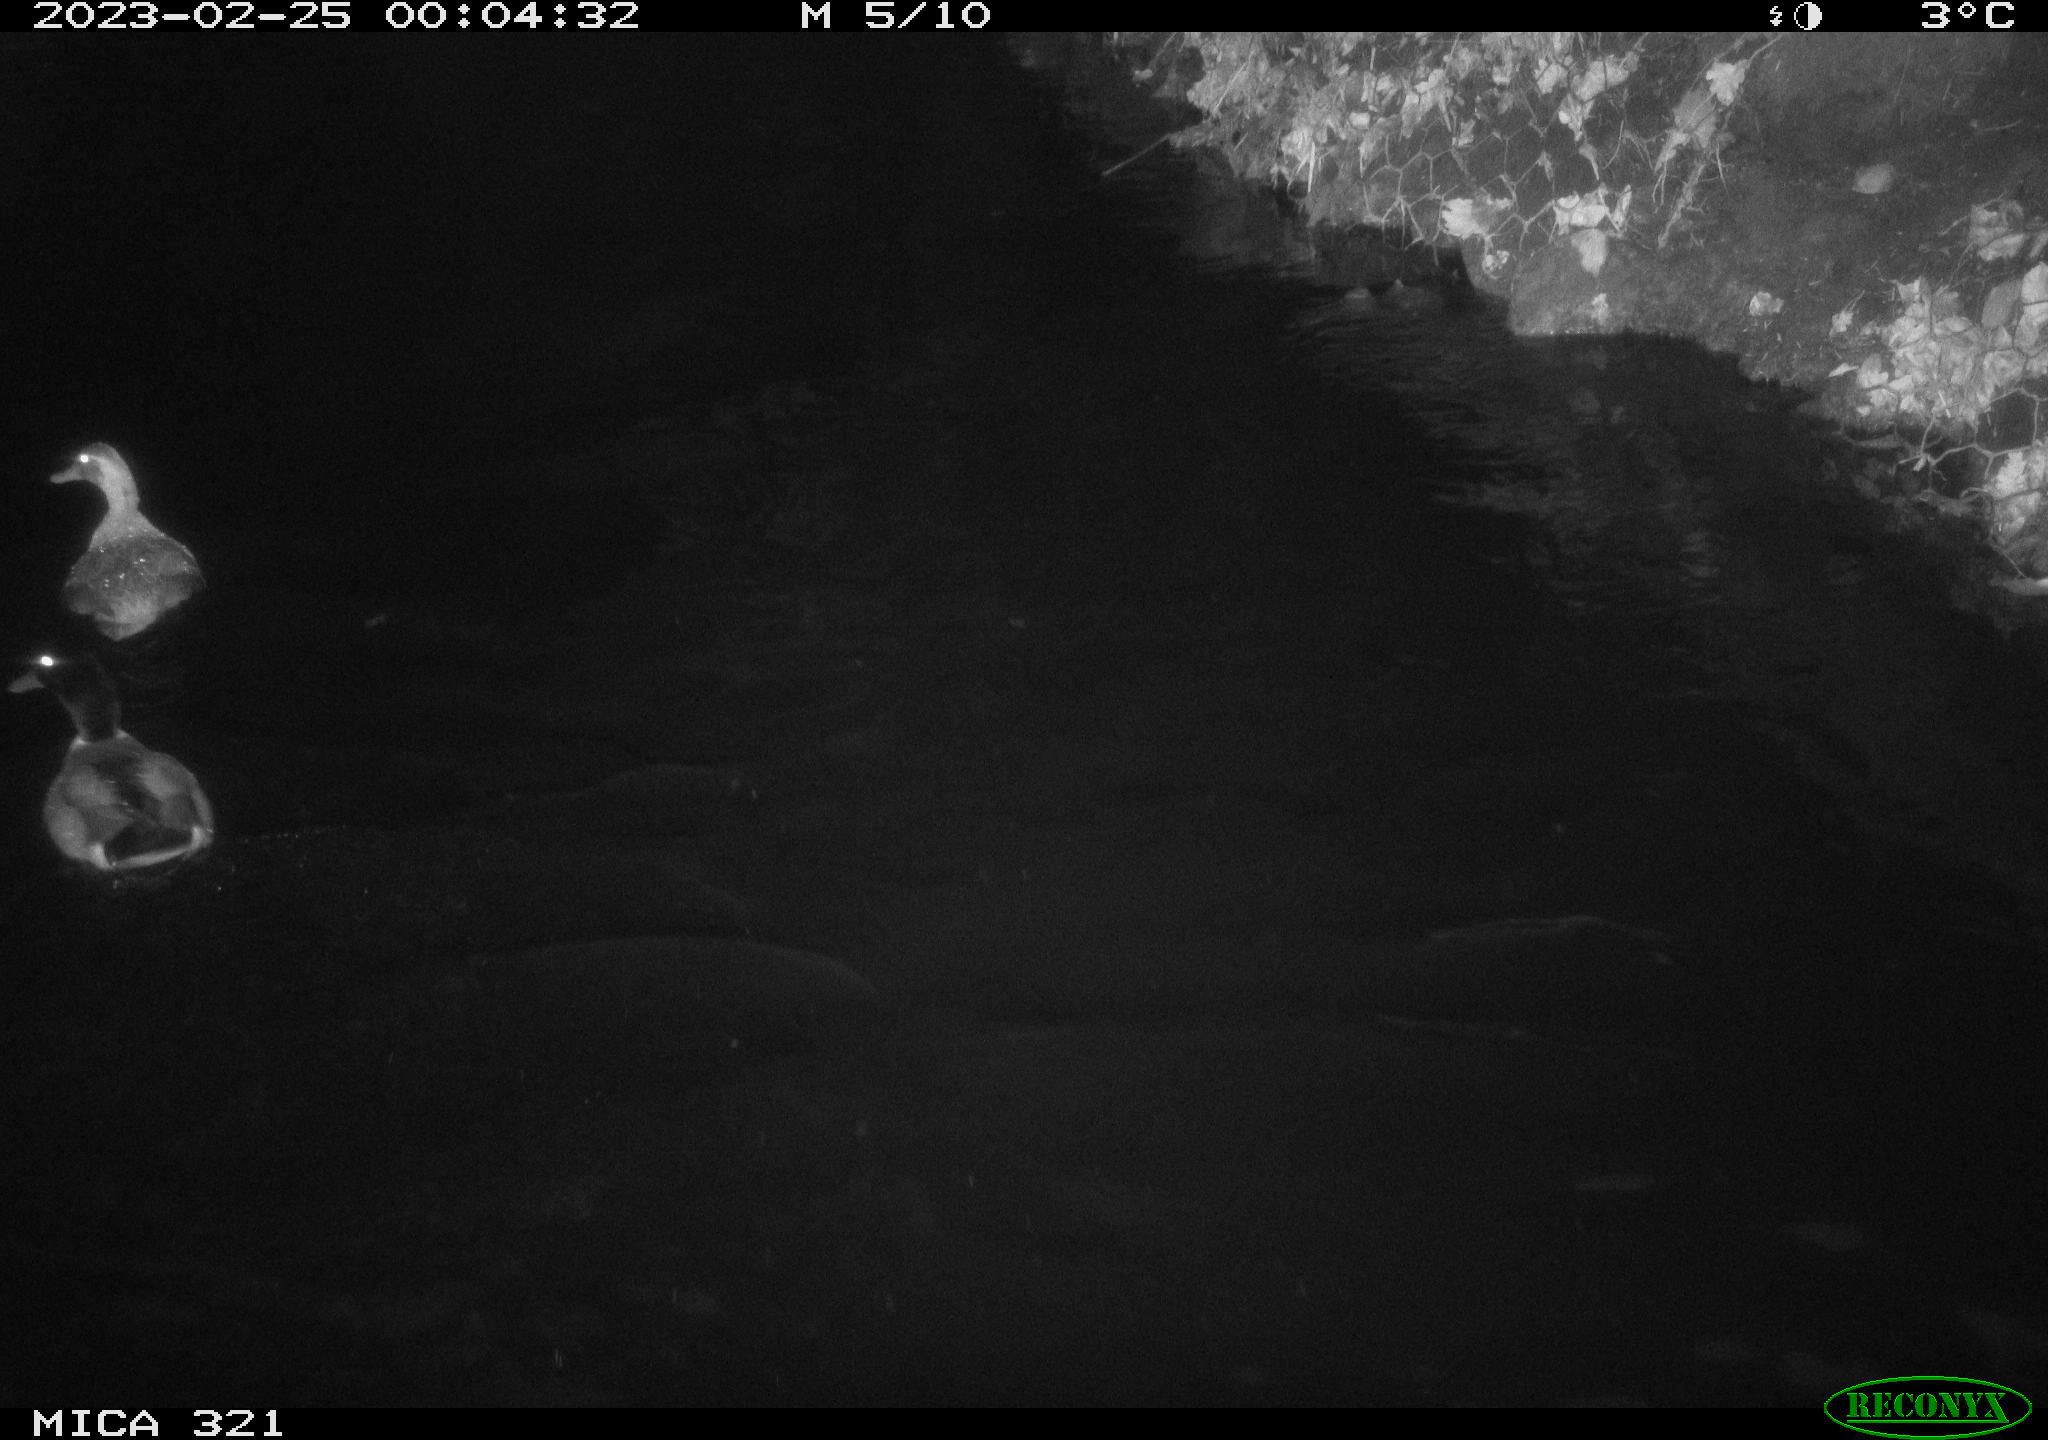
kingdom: Animalia
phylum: Chordata
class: Aves
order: Anseriformes
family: Anatidae
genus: Anas
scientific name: Anas
